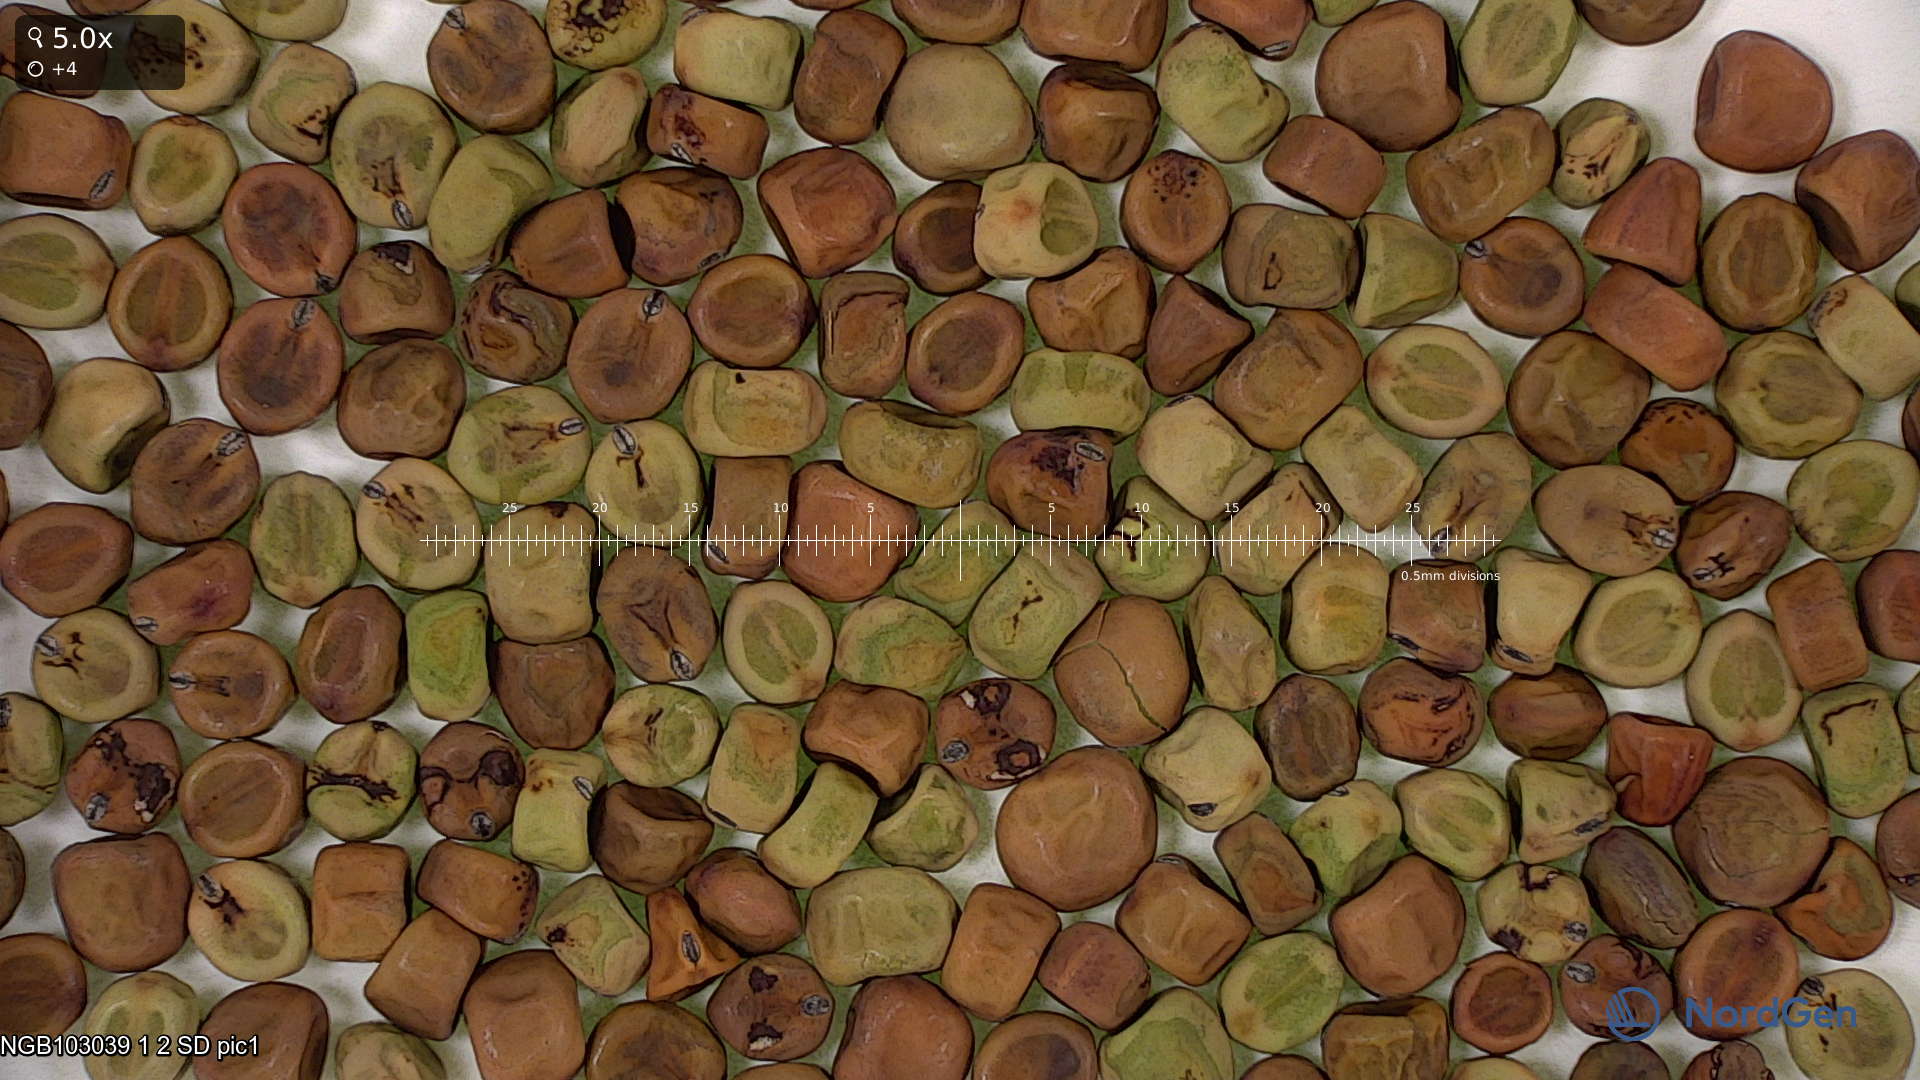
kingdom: Plantae
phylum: Tracheophyta
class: Magnoliopsida
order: Fabales
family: Fabaceae
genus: Lathyrus
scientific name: Lathyrus oleraceus
